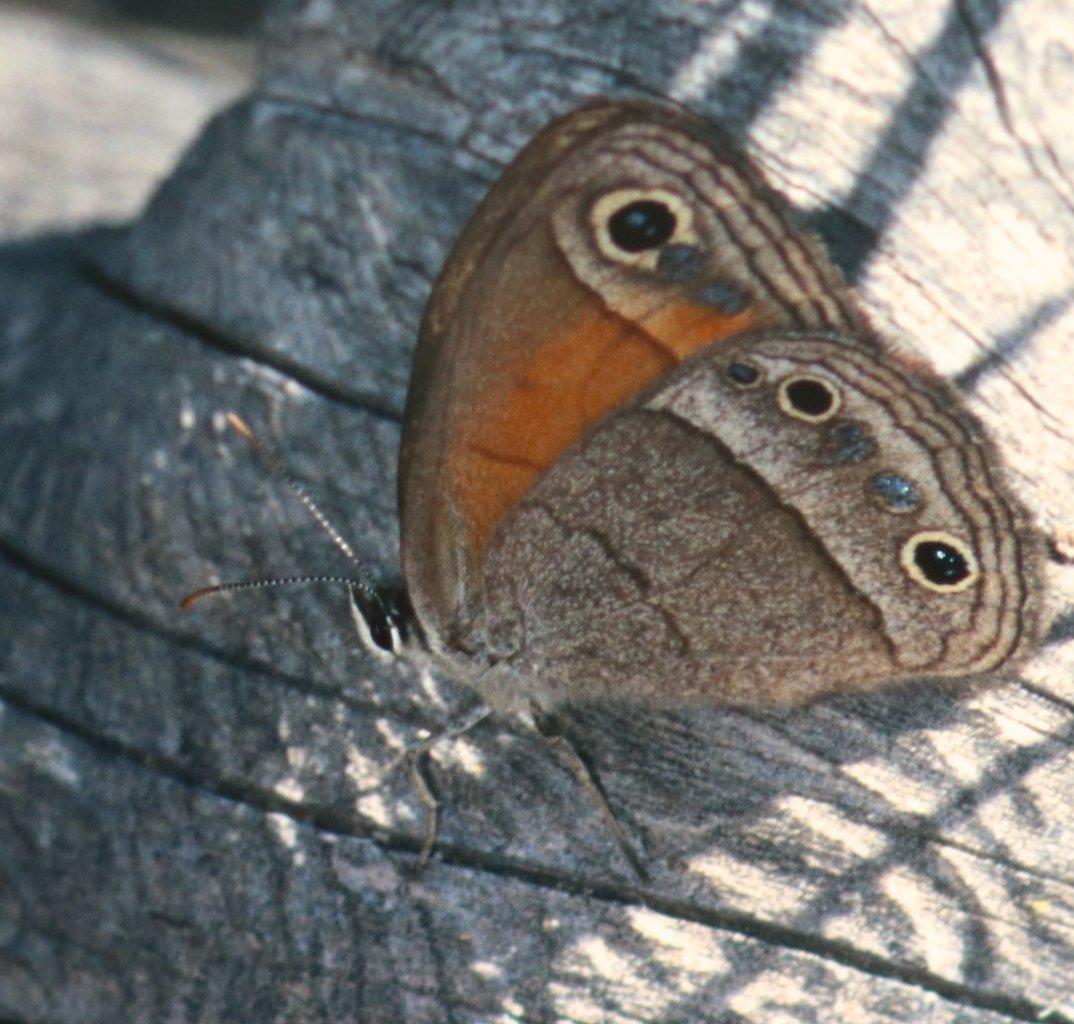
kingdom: Animalia
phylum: Arthropoda
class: Insecta
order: Lepidoptera
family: Nymphalidae
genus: Euptychia
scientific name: Euptychia rubricata
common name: Red Satyr
